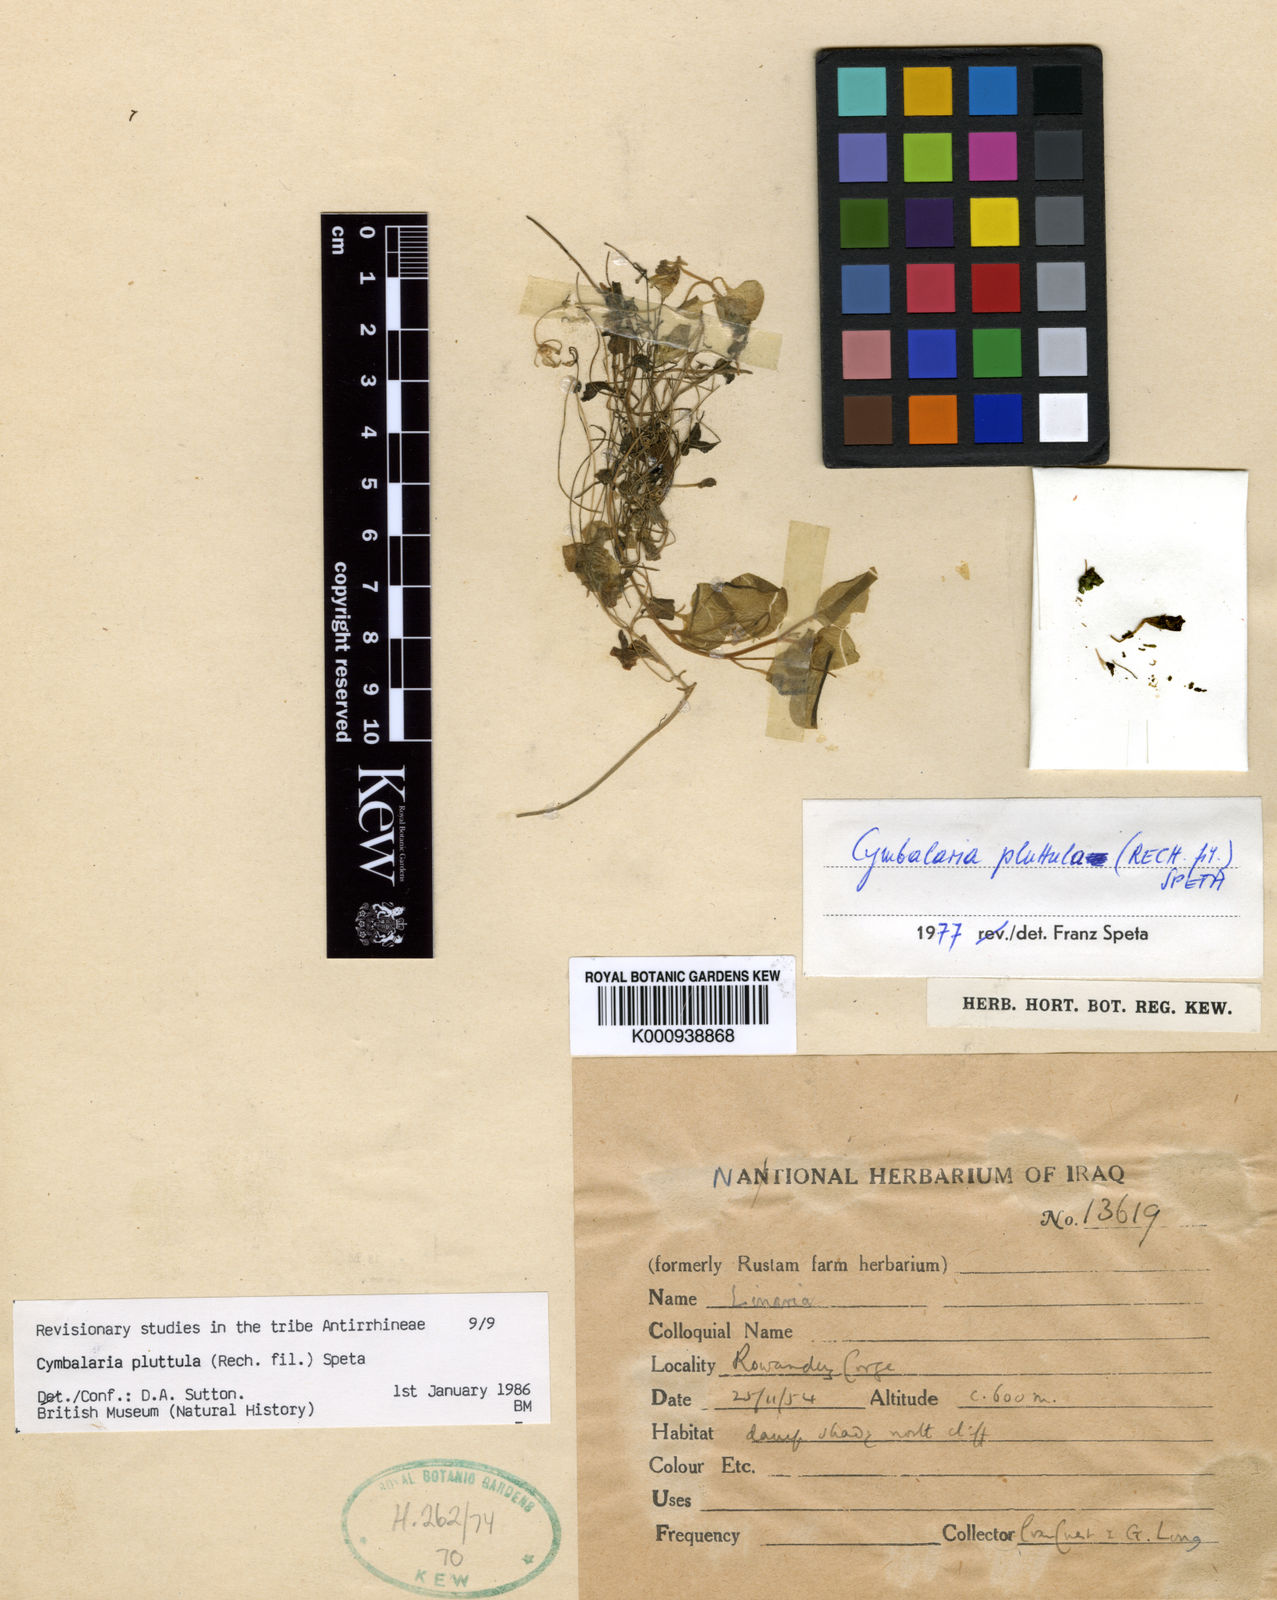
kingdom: Plantae
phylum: Tracheophyta
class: Magnoliopsida
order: Lamiales
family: Plantaginaceae
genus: Cymbalaria
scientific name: Cymbalaria pluttula
